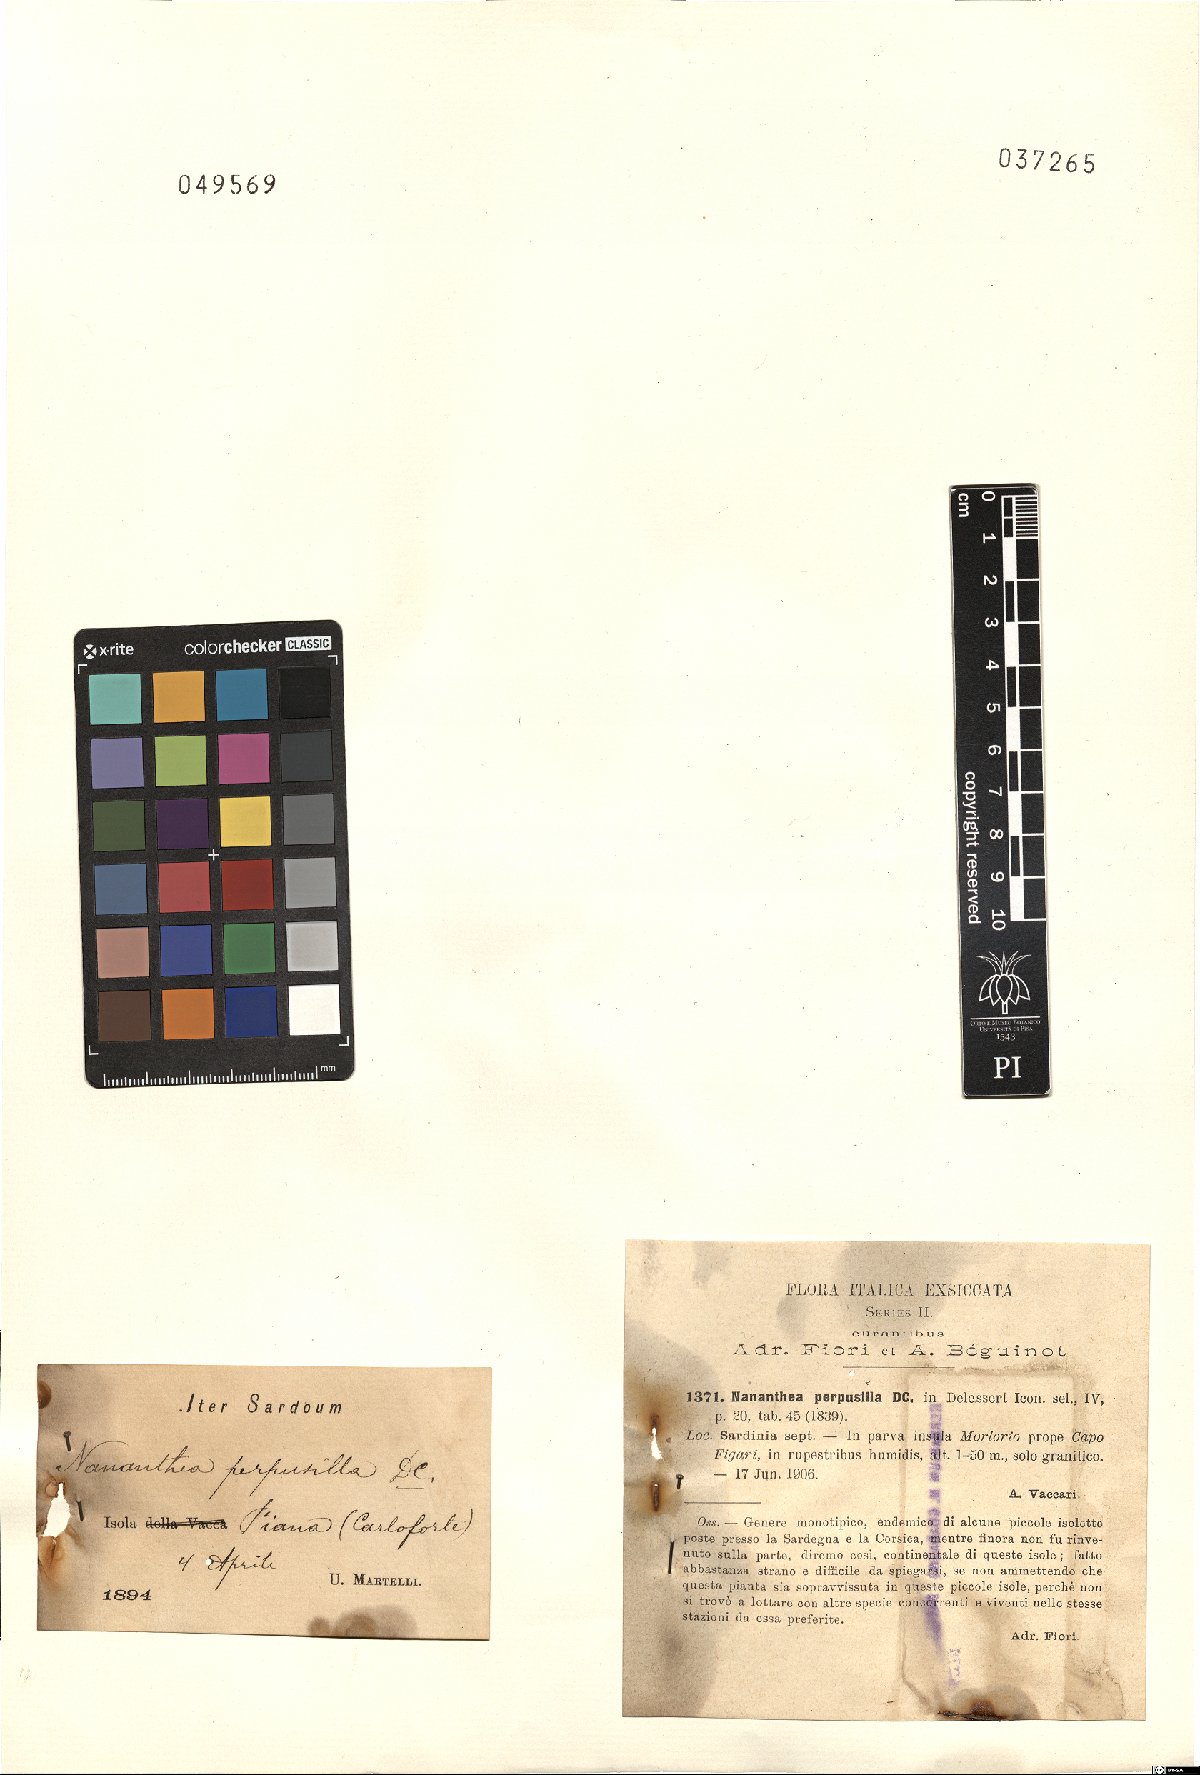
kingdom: Plantae
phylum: Tracheophyta
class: Magnoliopsida
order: Asterales
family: Asteraceae
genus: Nananthea
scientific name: Nananthea perpusilla
